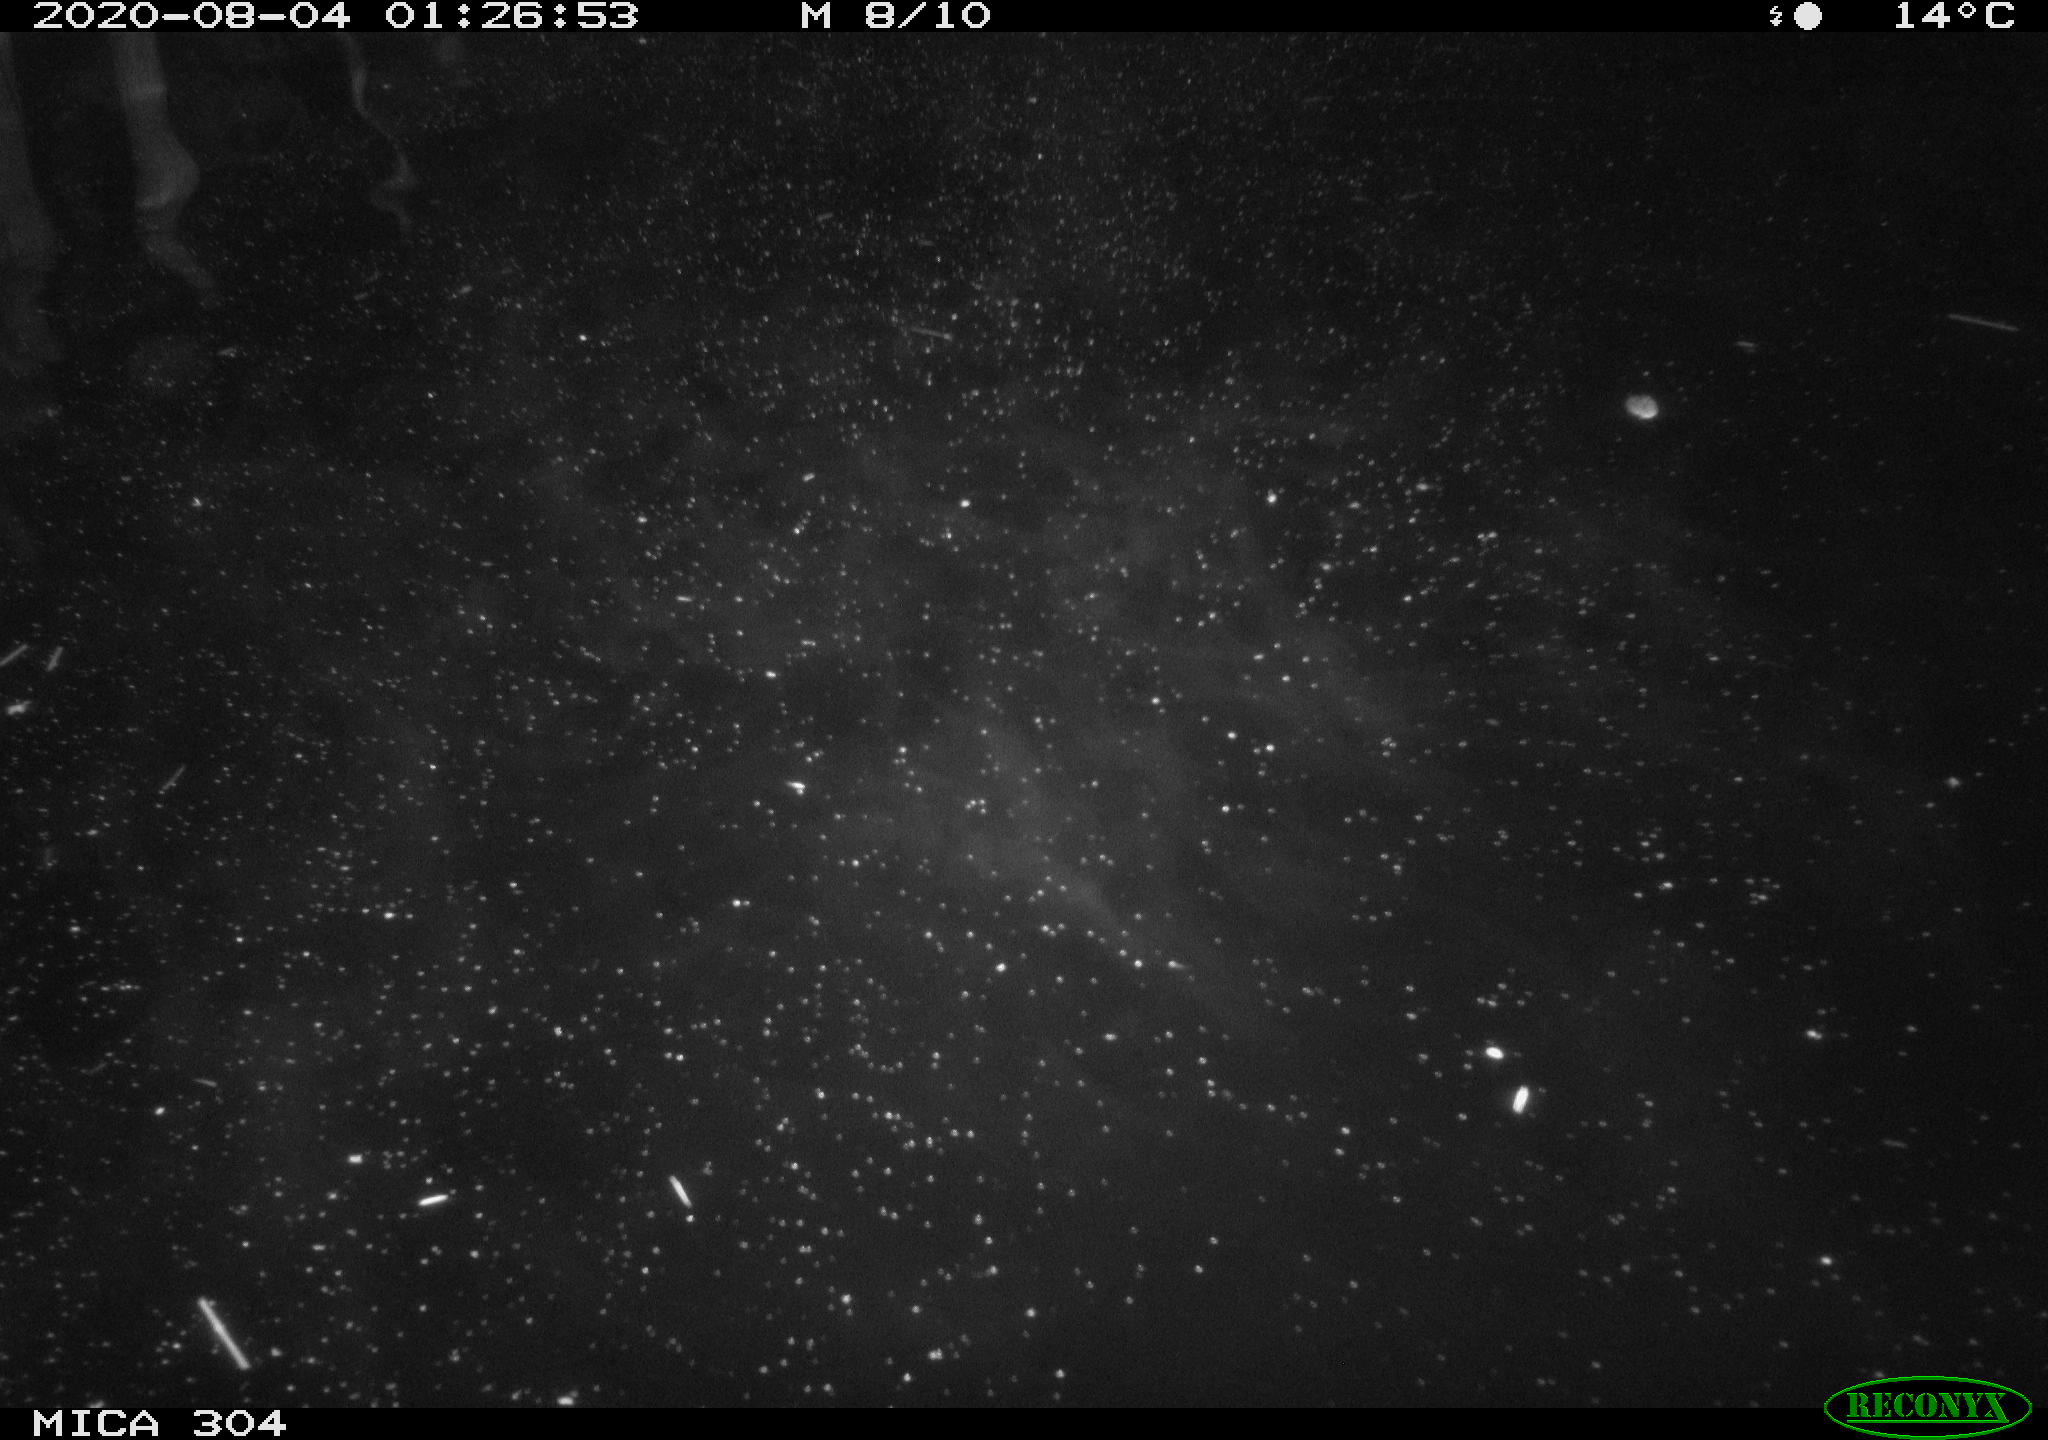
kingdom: Animalia
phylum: Chordata
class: Mammalia
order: Rodentia
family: Cricetidae
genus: Ondatra
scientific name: Ondatra zibethicus
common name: Muskrat
